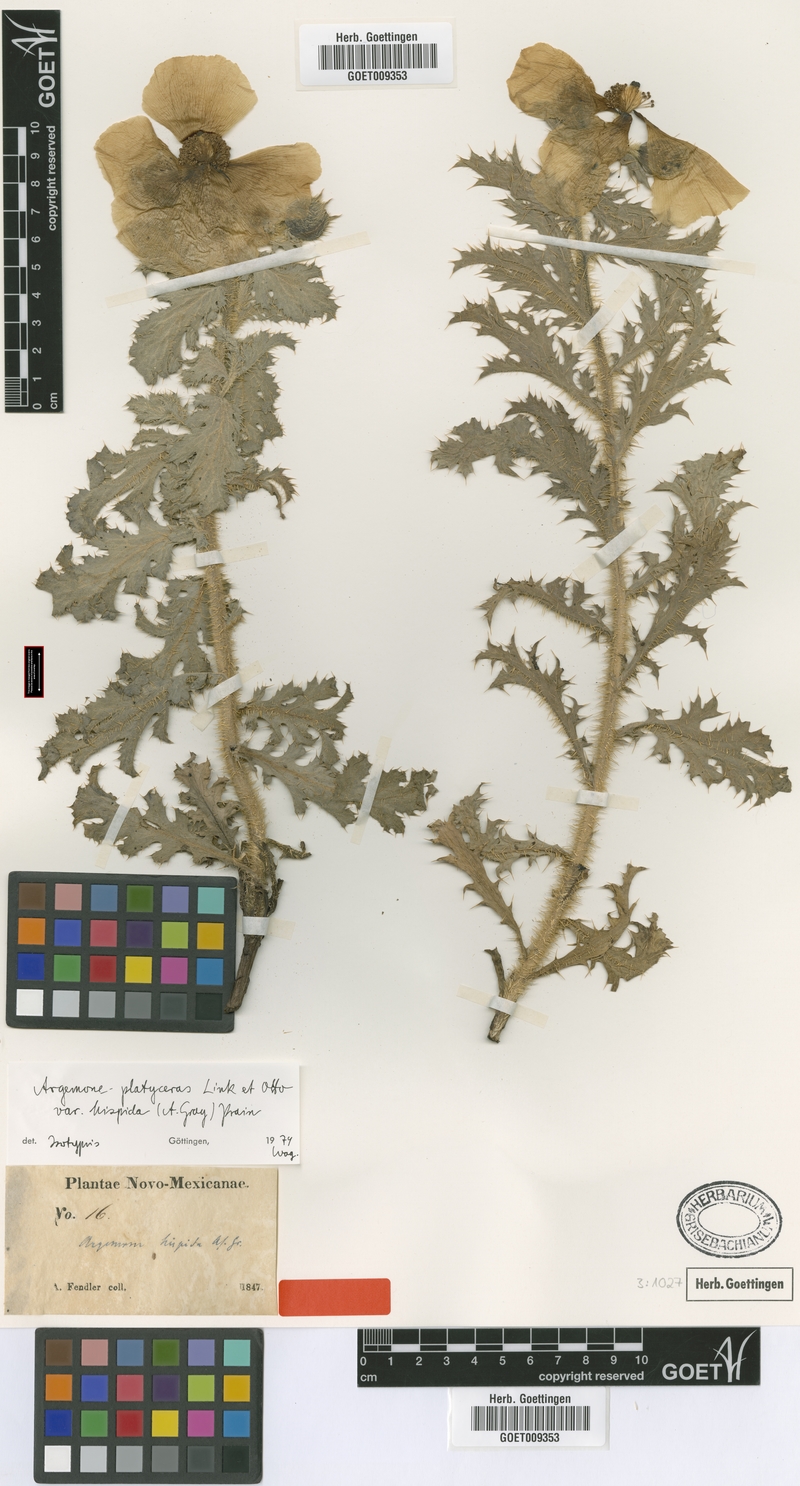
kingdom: Plantae
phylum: Tracheophyta
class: Magnoliopsida
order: Ranunculales
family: Papaveraceae
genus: Argemone
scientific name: Argemone hispida
